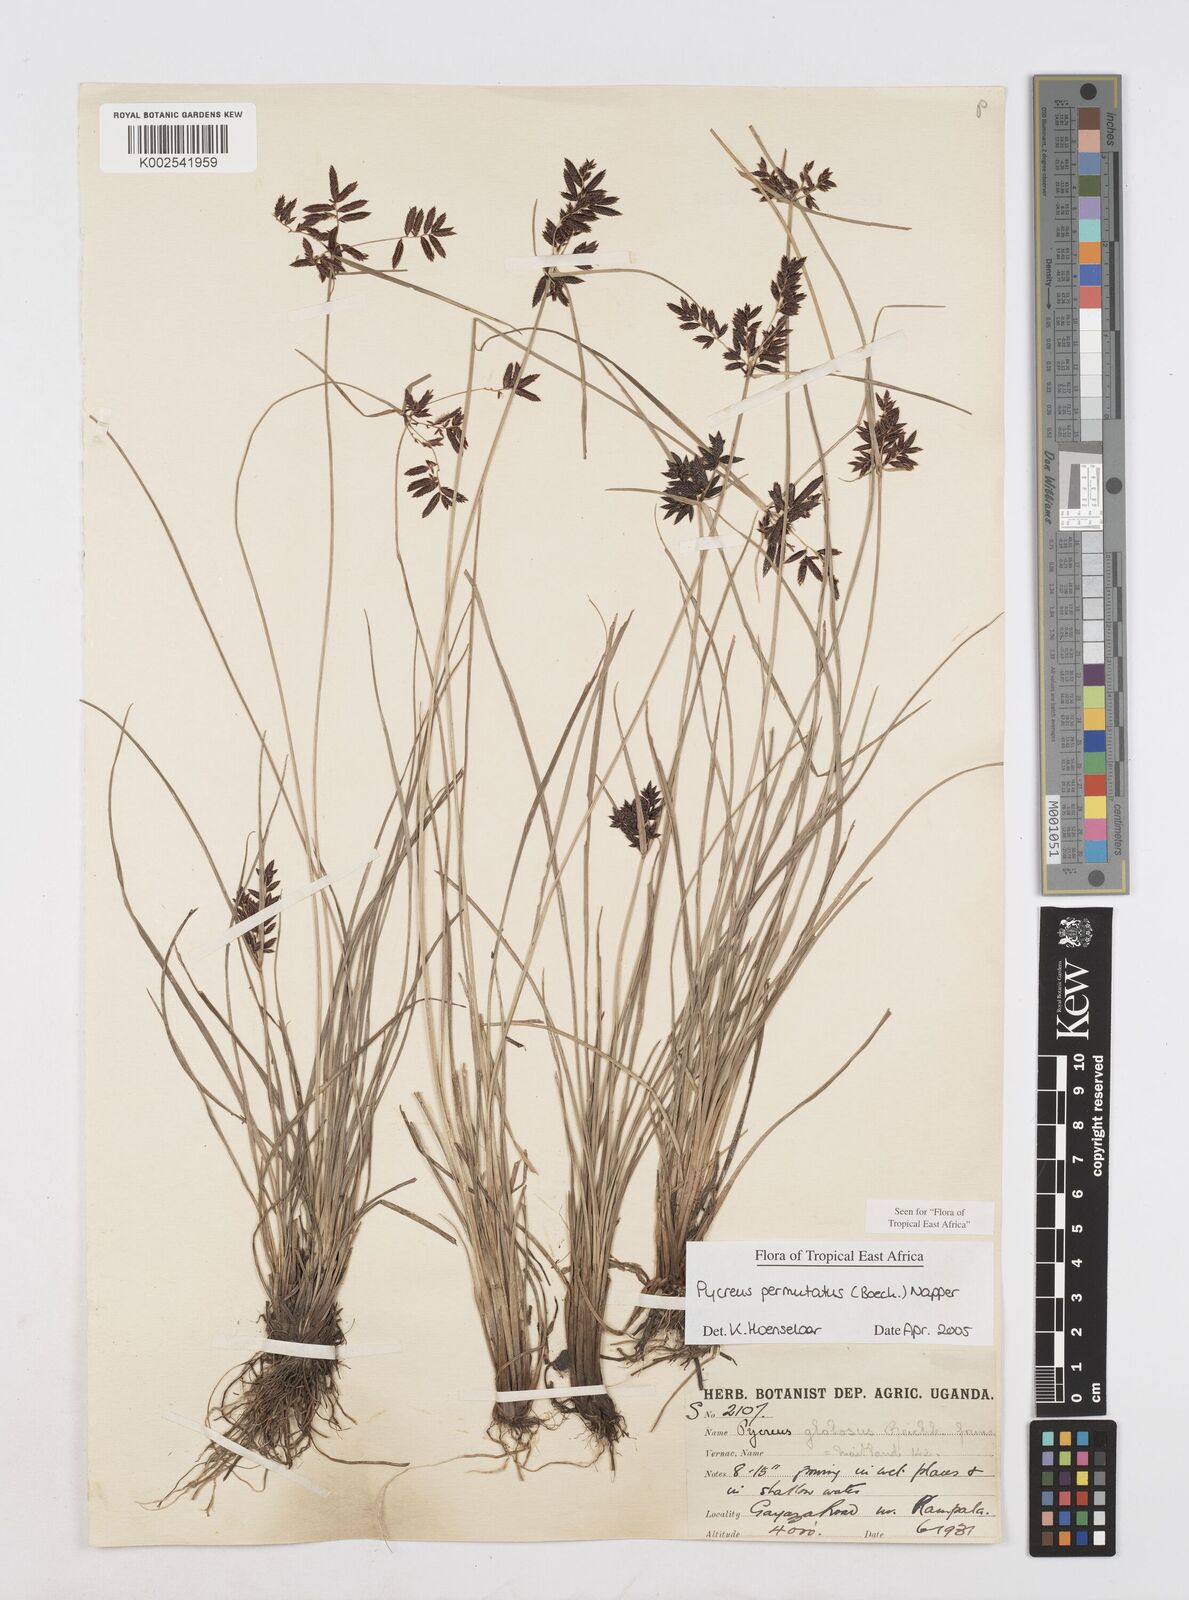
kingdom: Plantae
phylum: Tracheophyta
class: Liliopsida
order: Poales
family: Cyperaceae
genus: Cyperus
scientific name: Cyperus nigricans
